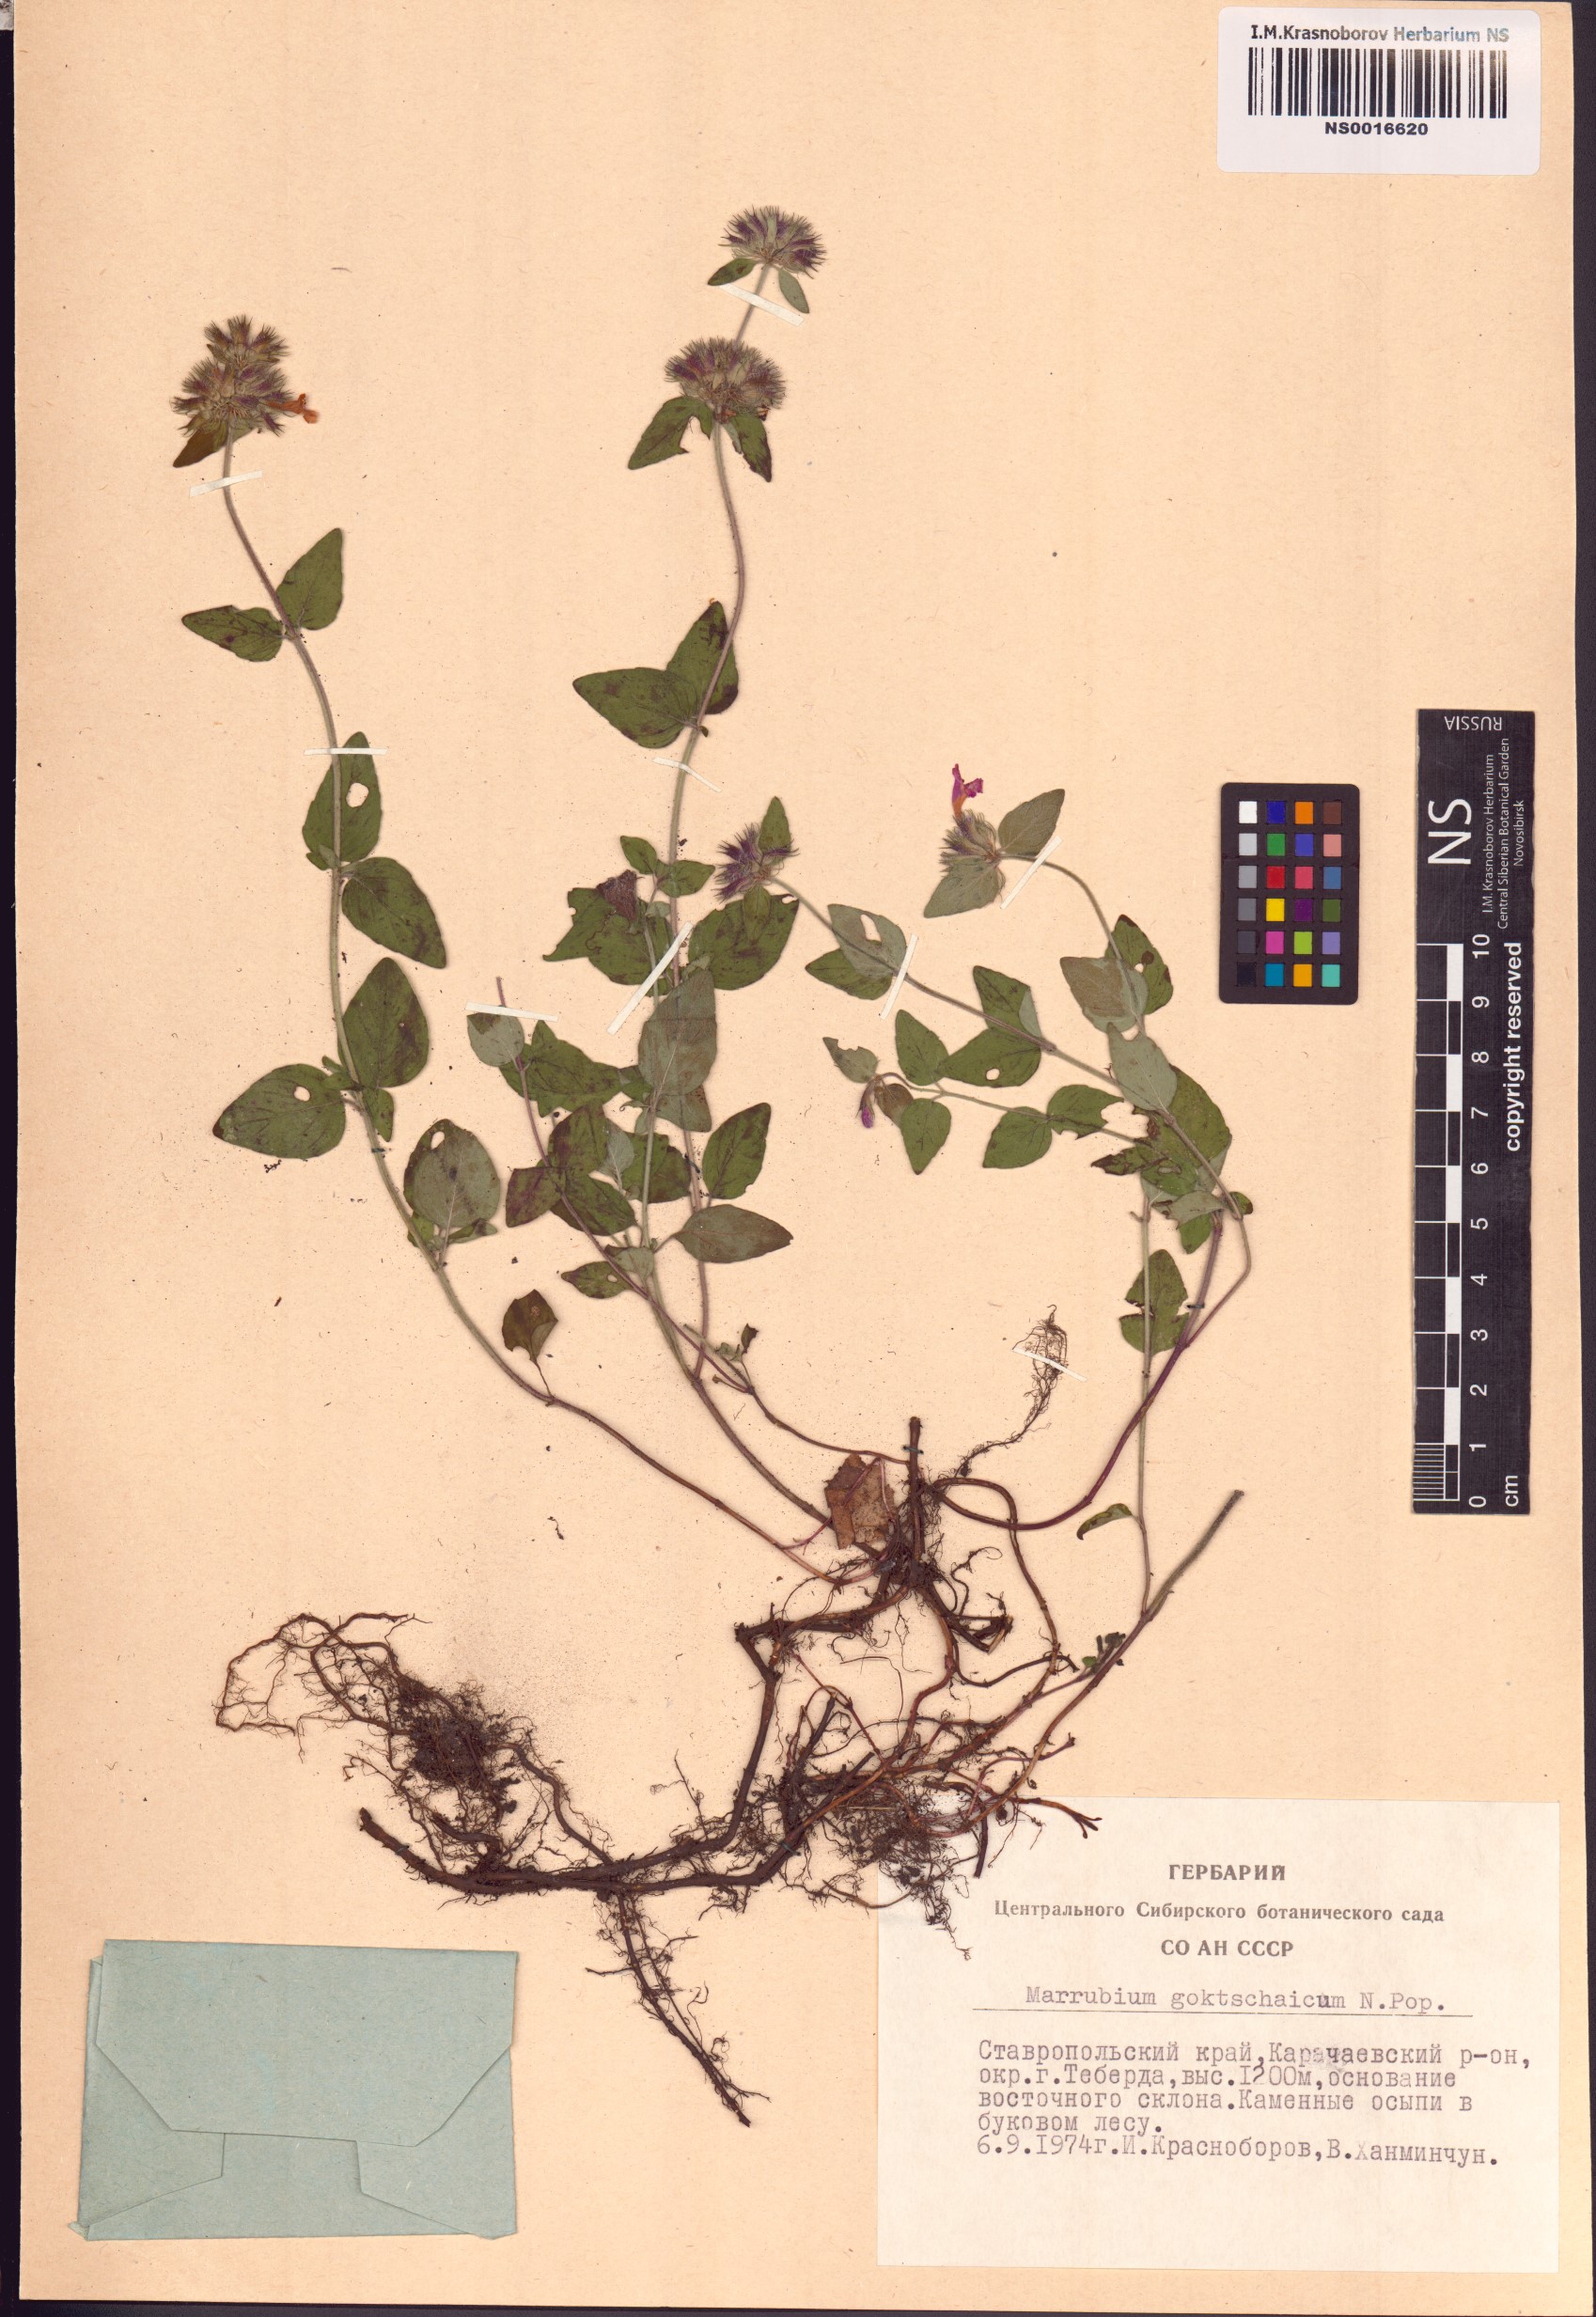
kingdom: Plantae
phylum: Tracheophyta
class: Magnoliopsida
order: Lamiales
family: Lamiaceae
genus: Marrubium
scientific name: Marrubium astracanicum
